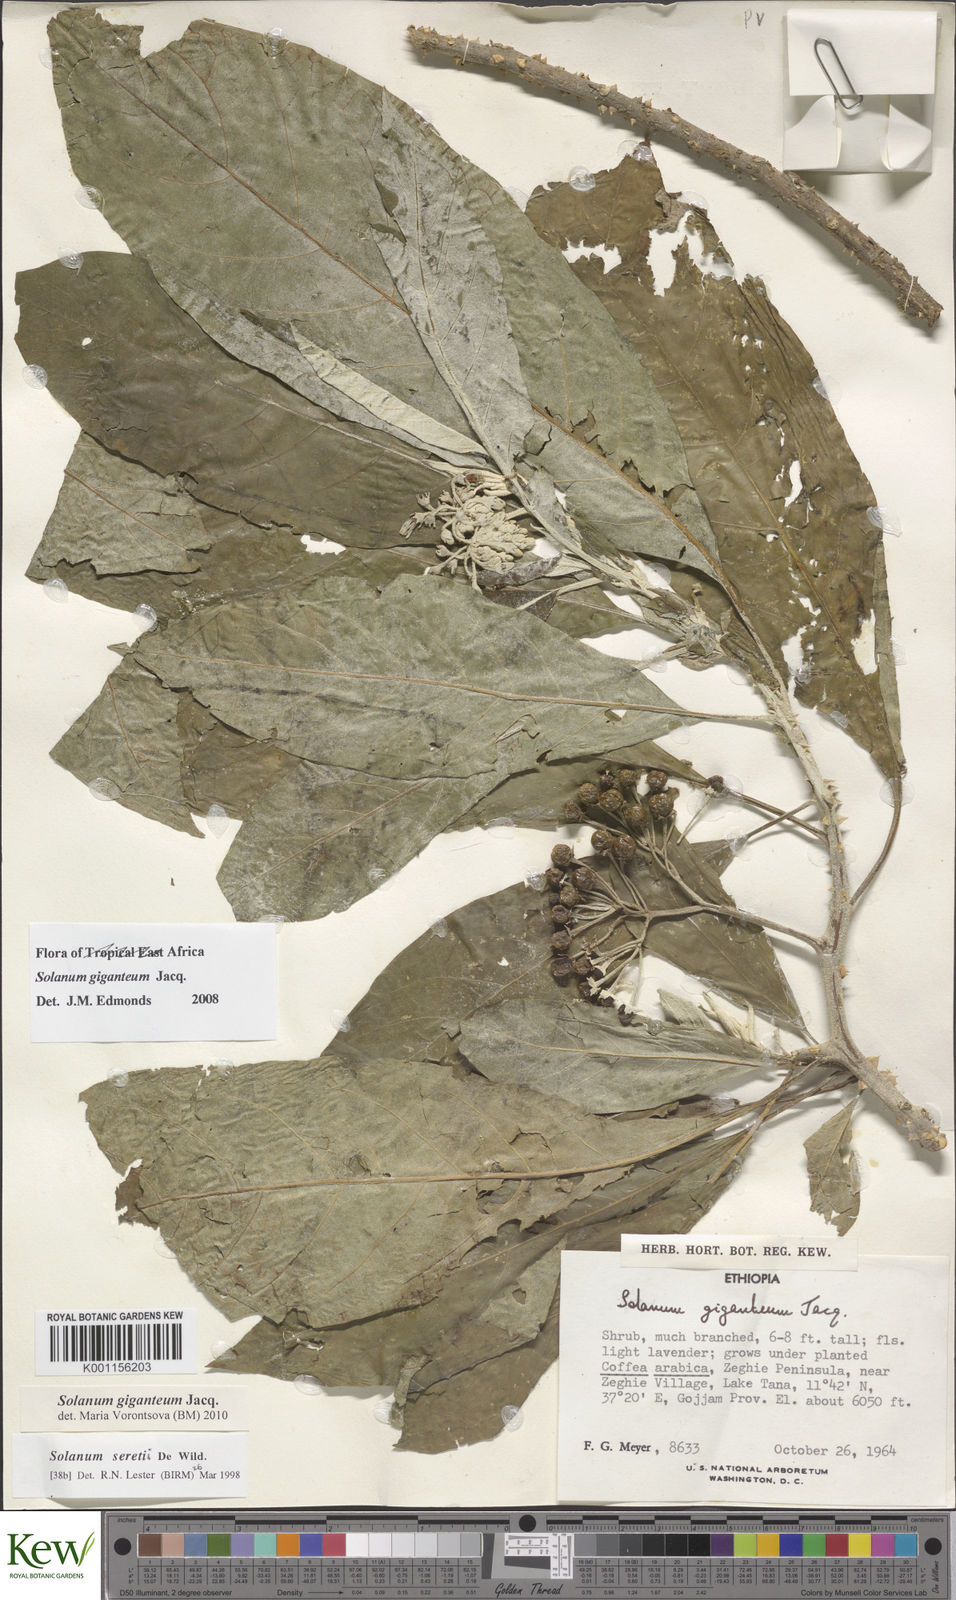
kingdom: Plantae
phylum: Tracheophyta
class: Magnoliopsida
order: Solanales
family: Solanaceae
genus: Solanum
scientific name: Solanum giganteum
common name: Healing-leaf-tree
